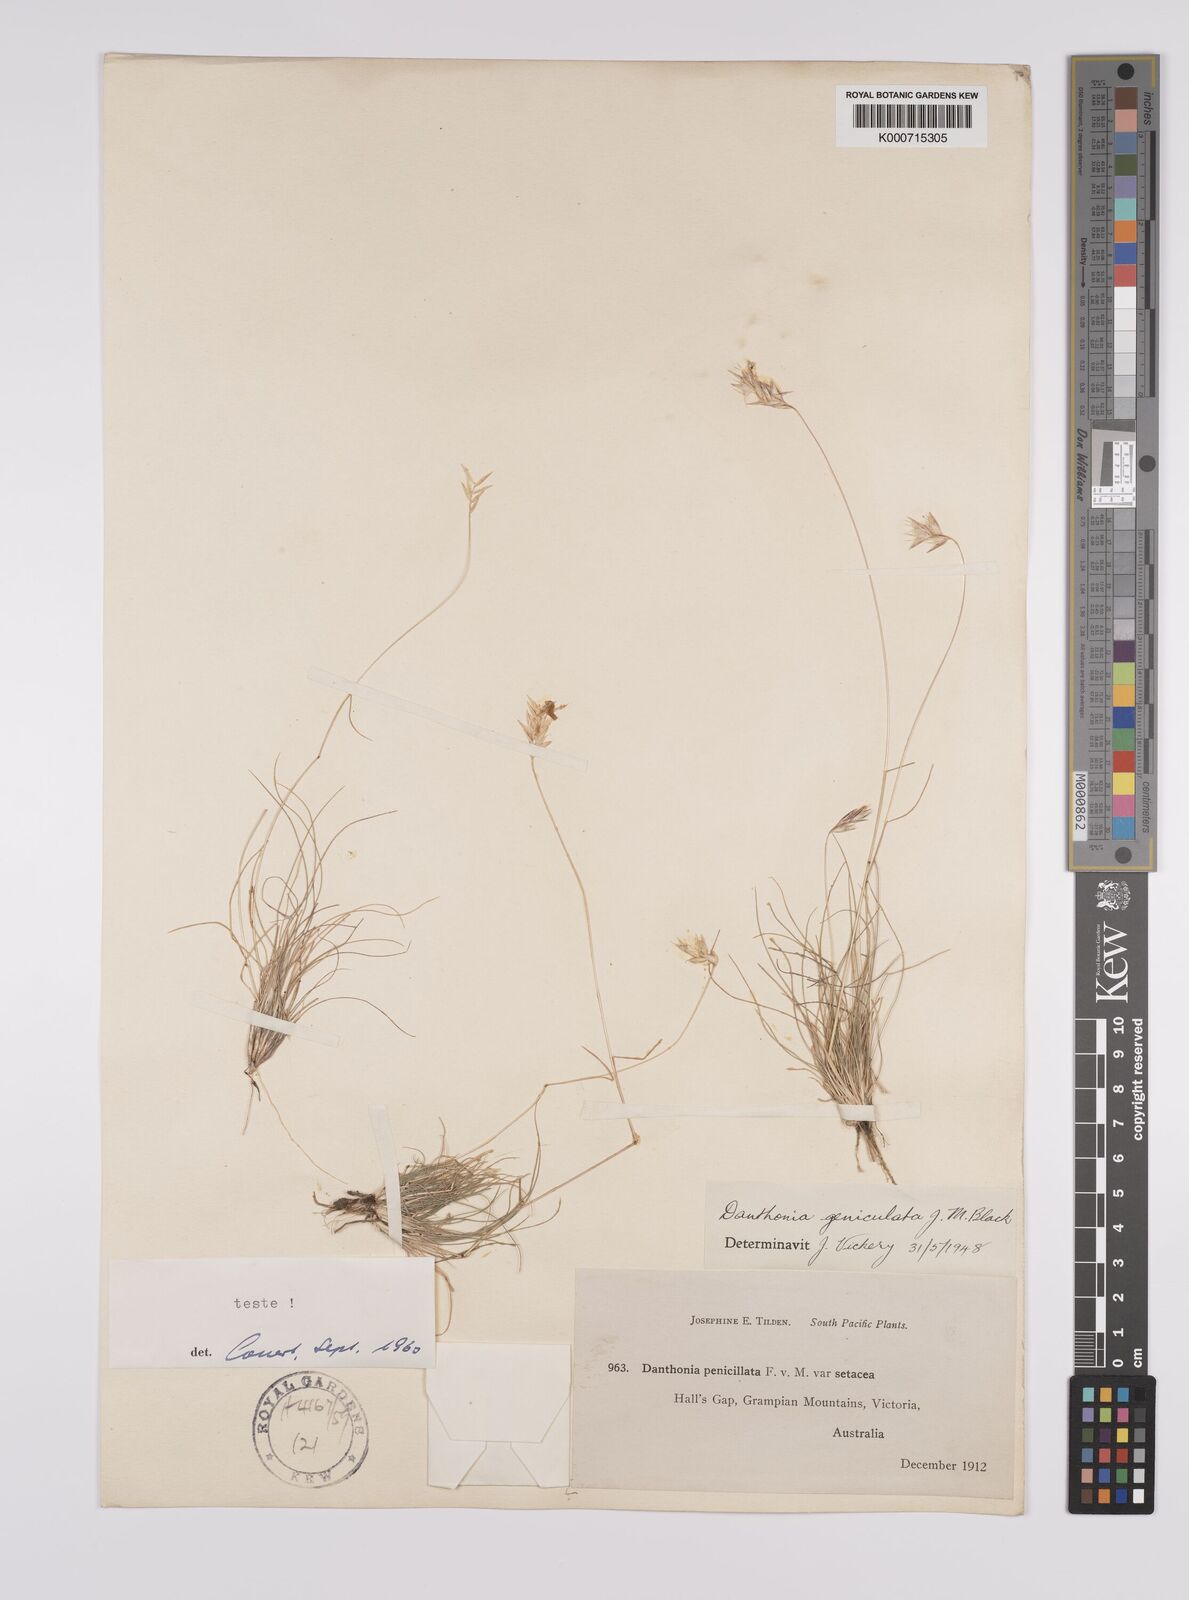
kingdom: Plantae
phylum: Tracheophyta
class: Liliopsida
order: Poales
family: Poaceae
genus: Rytidosperma
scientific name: Rytidosperma geniculatum
